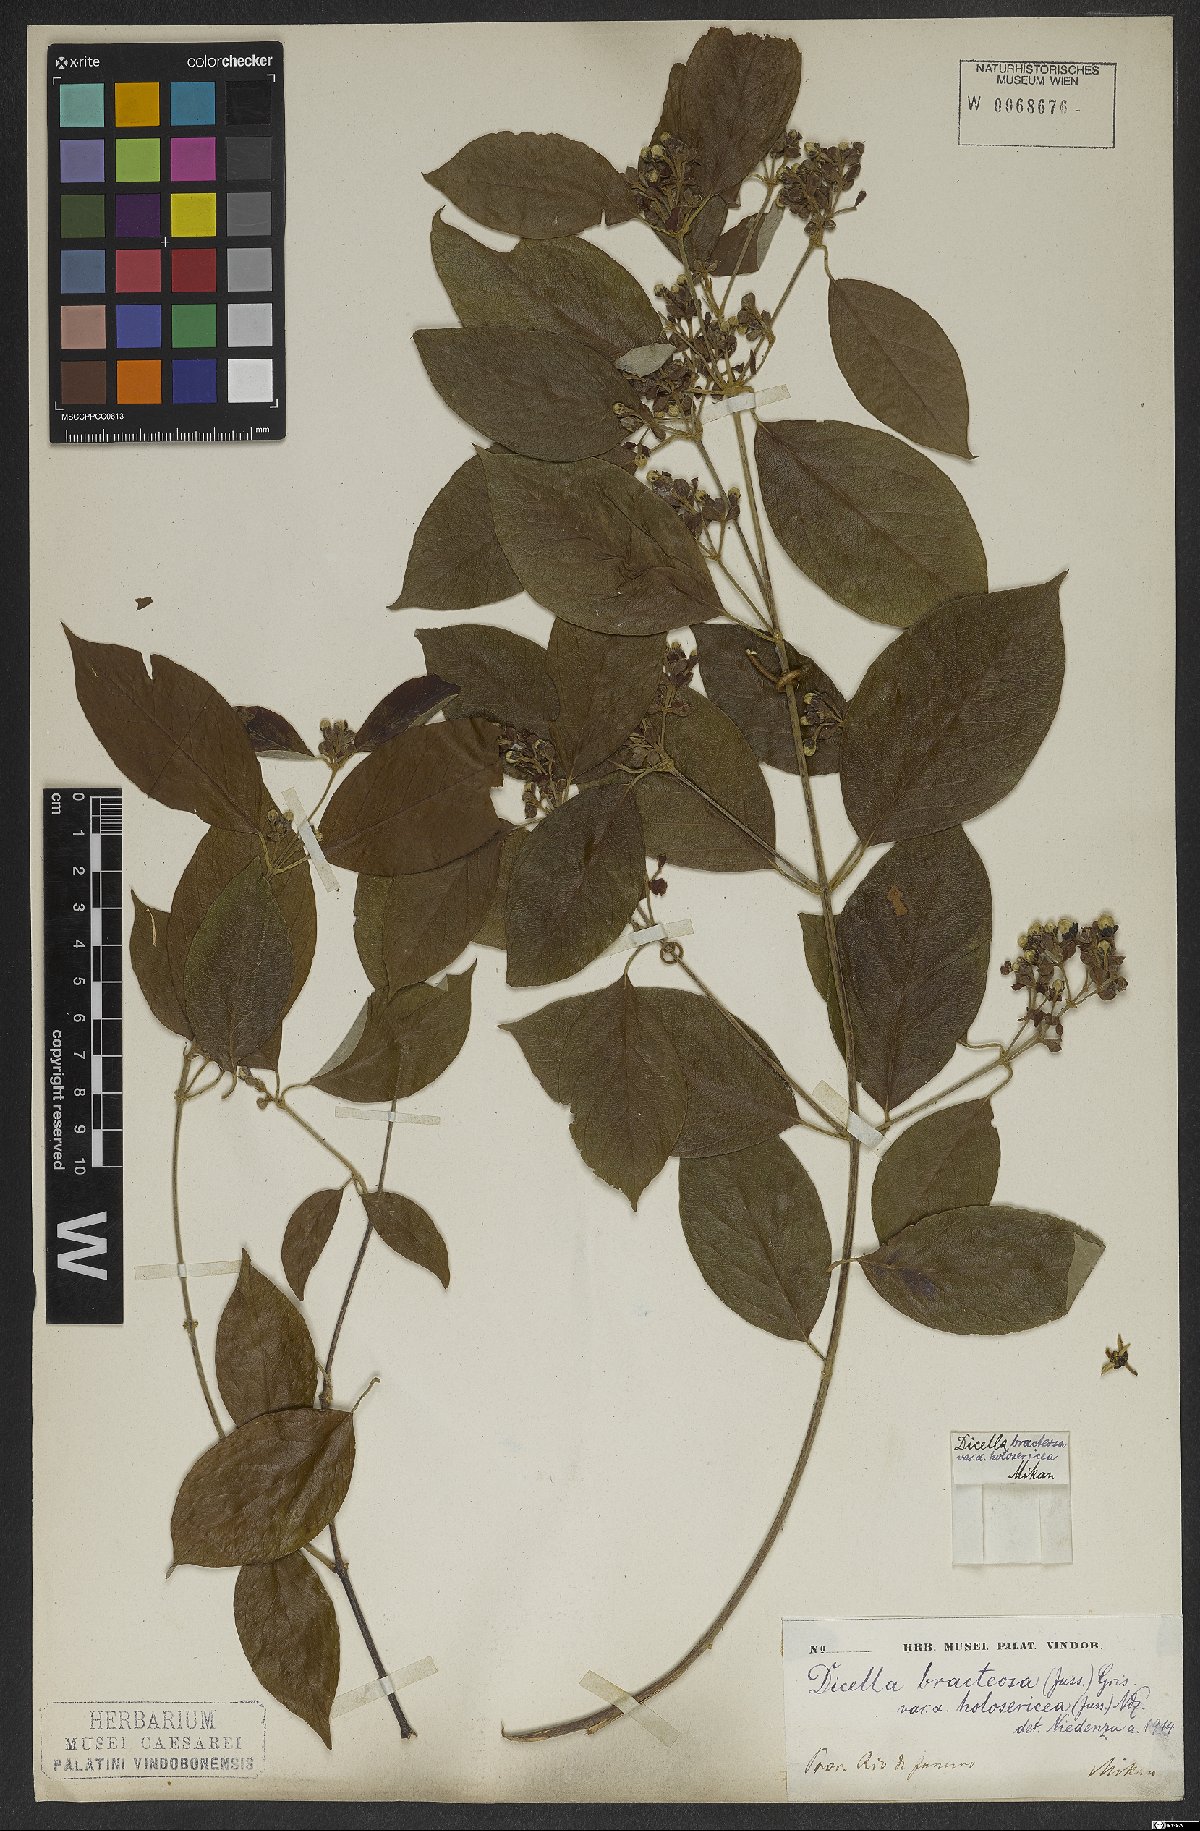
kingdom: Plantae
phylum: Tracheophyta
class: Magnoliopsida
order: Malpighiales
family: Malpighiaceae
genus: Dicella
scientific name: Dicella bracteosa
